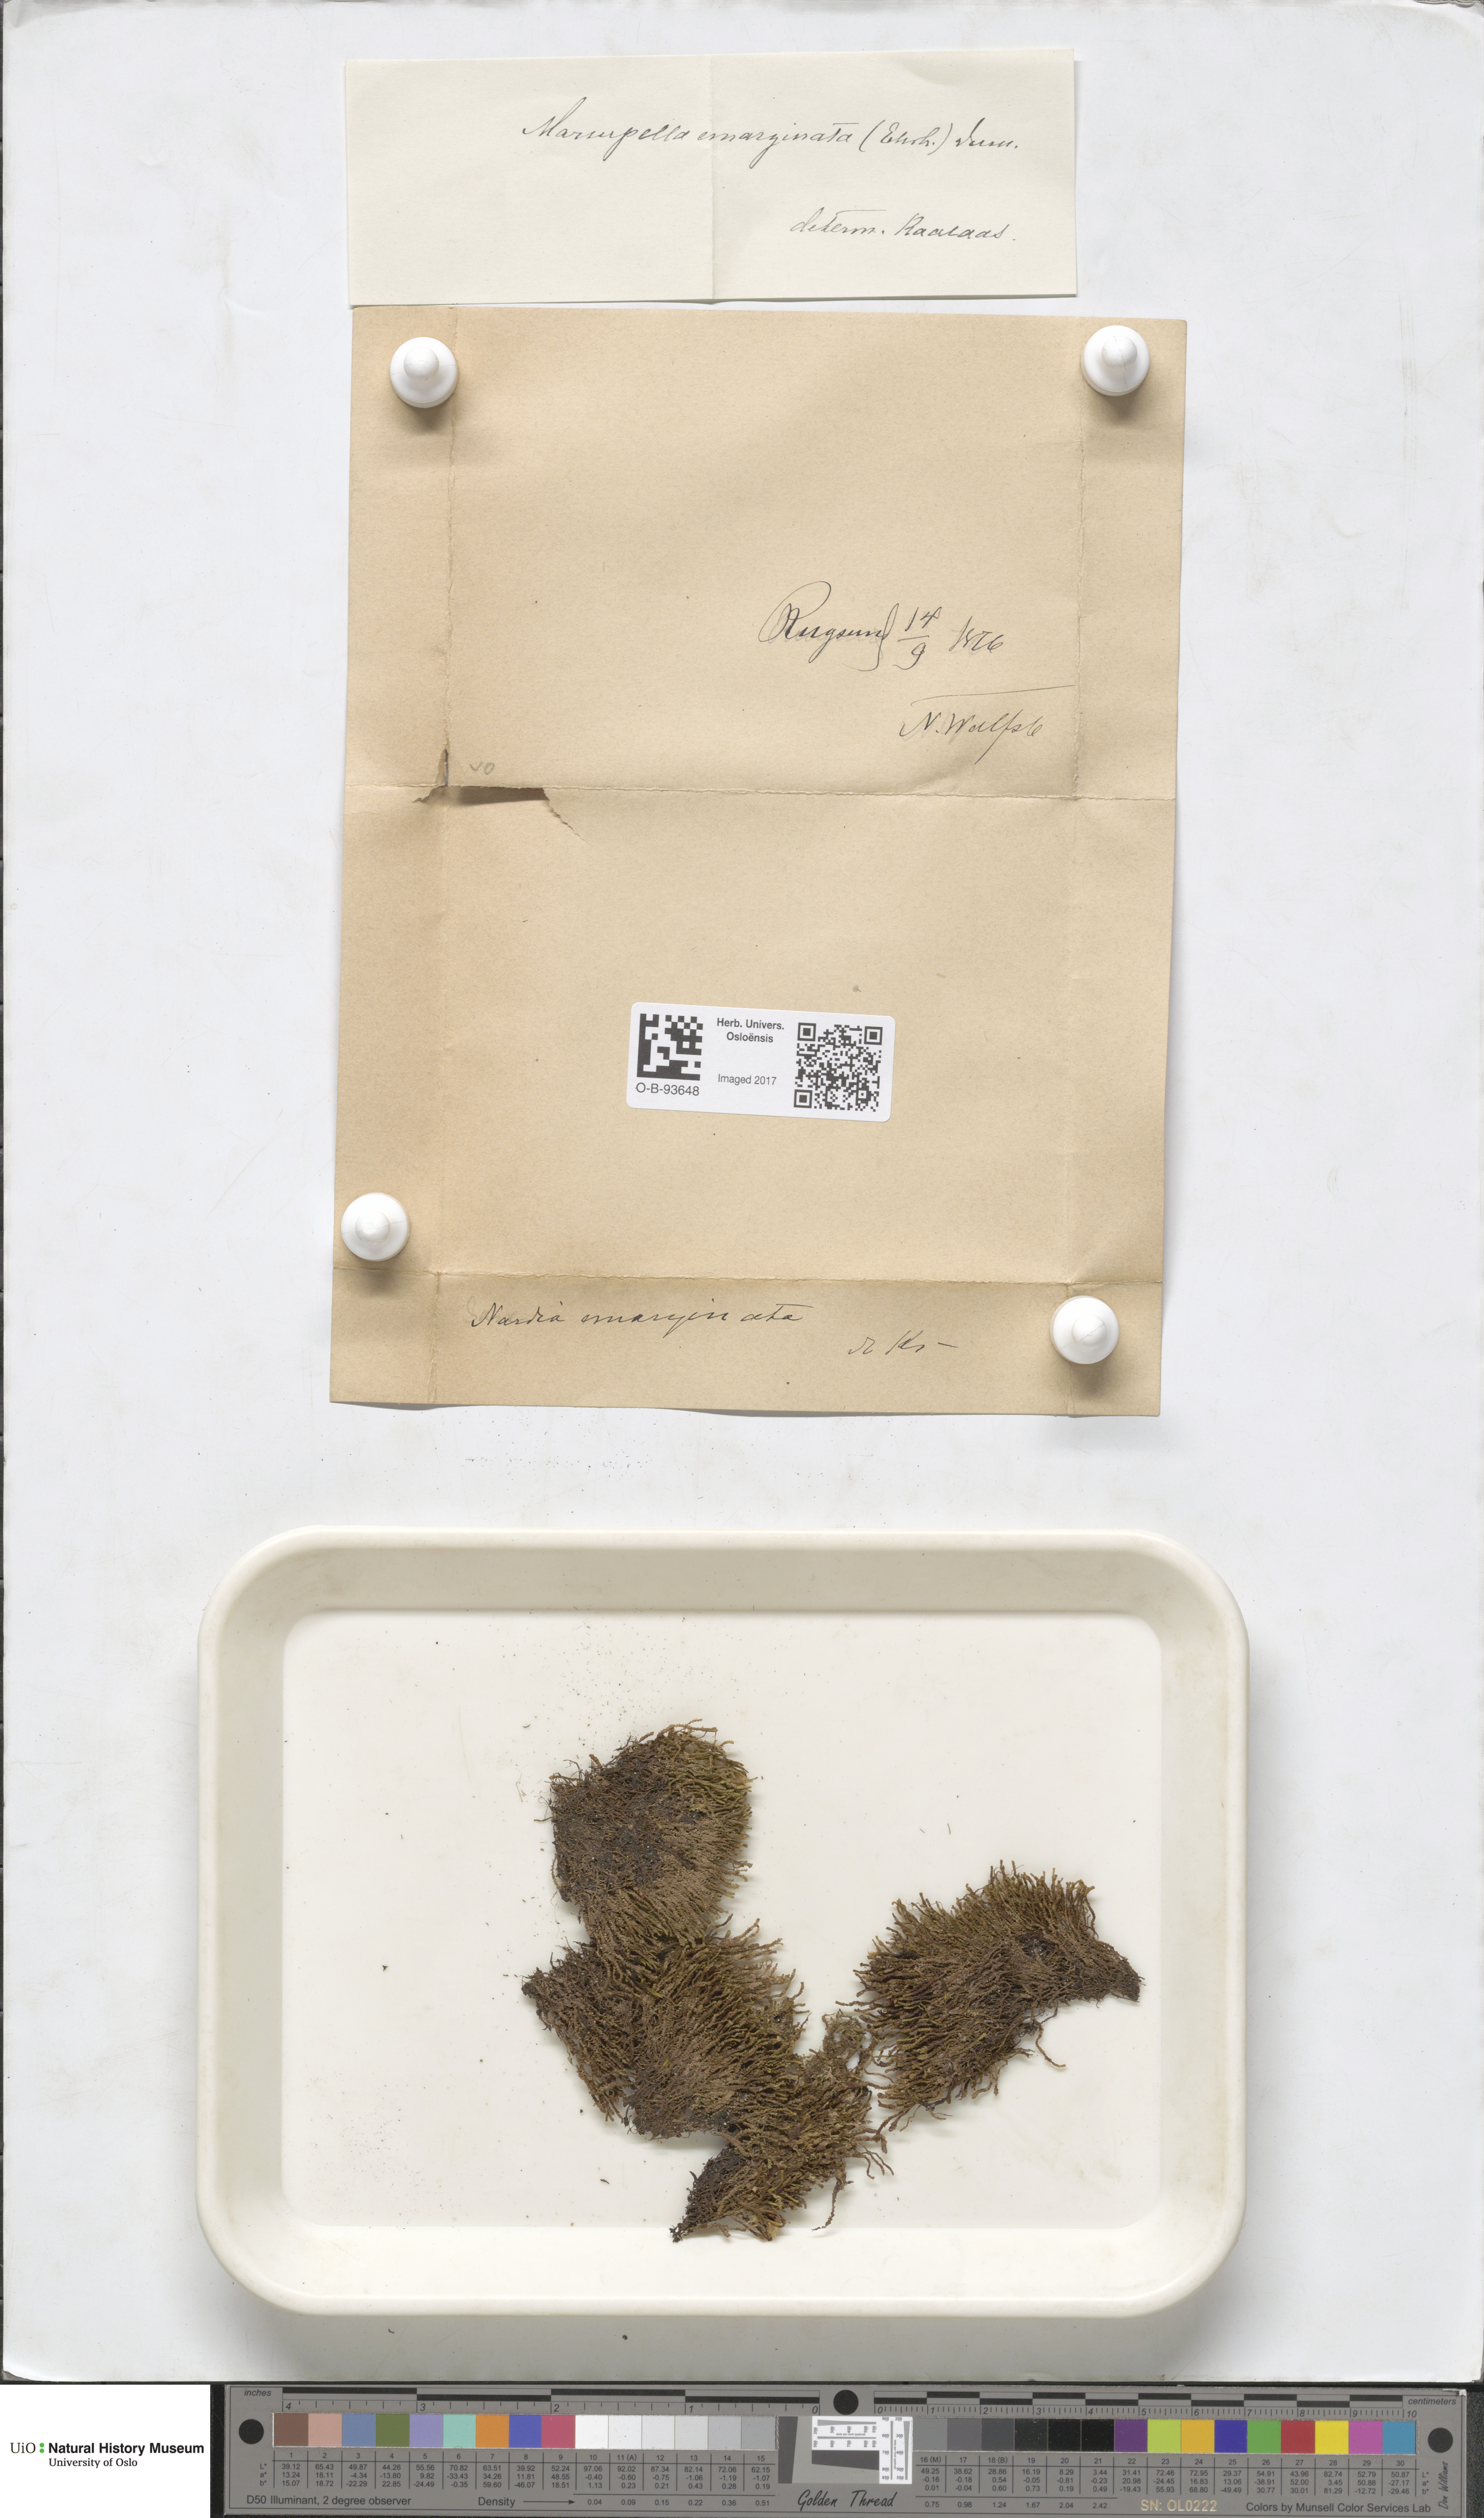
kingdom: Plantae
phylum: Marchantiophyta
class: Jungermanniopsida
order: Jungermanniales
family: Gymnomitriaceae
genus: Marsupella
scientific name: Marsupella emarginata
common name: Notched rustwort
